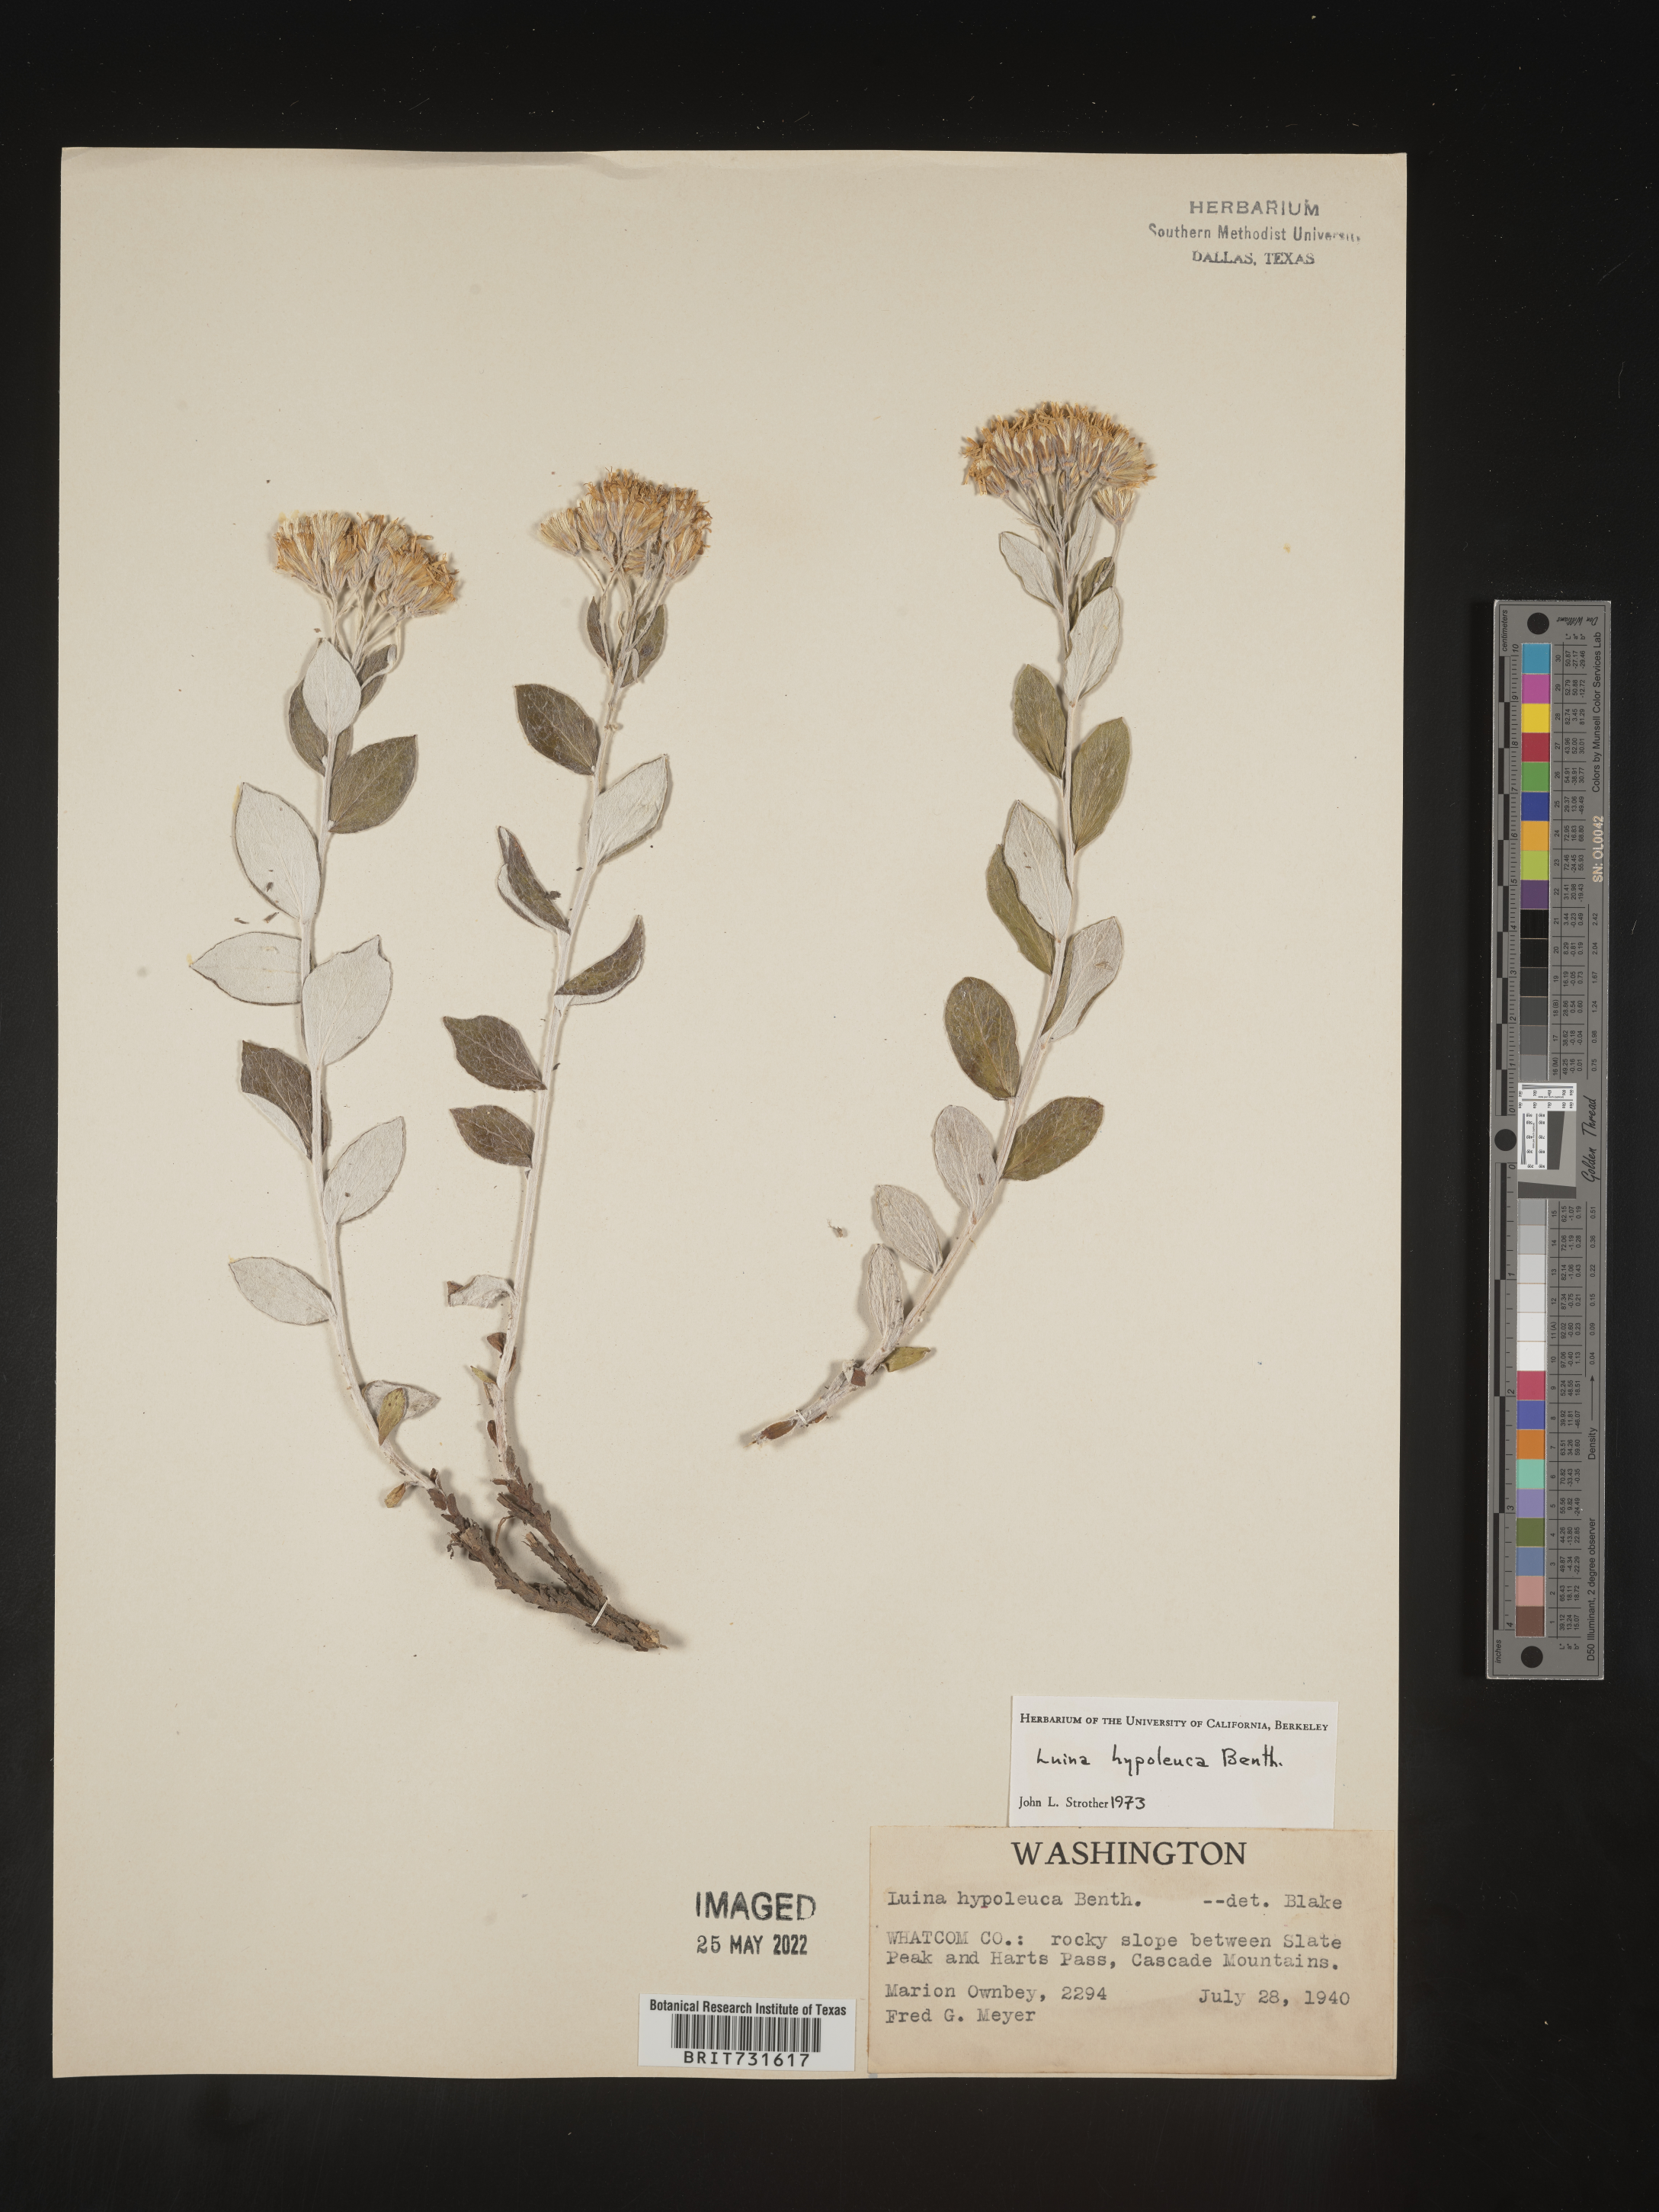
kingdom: Plantae
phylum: Tracheophyta
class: Magnoliopsida
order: Asterales
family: Asteraceae
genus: Luina
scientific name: Luina hypoleuca
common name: Little-leaved luina
